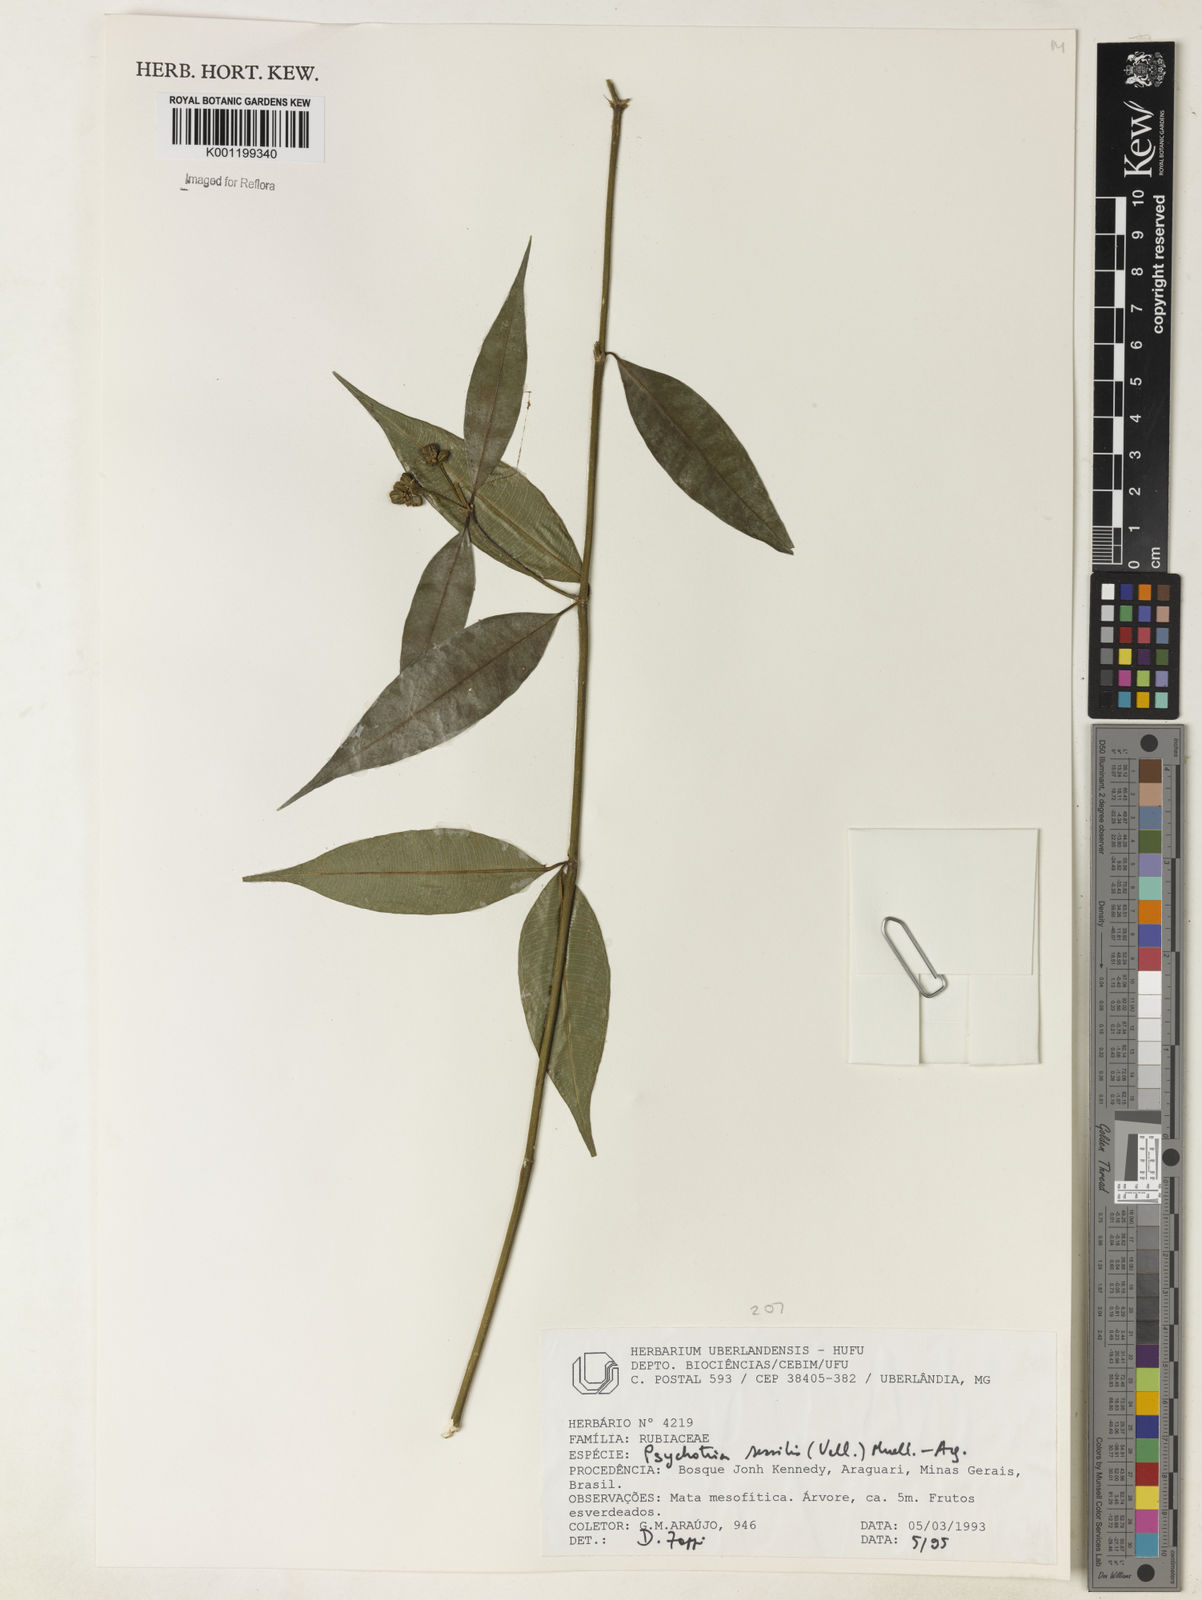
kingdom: Plantae
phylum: Tracheophyta
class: Magnoliopsida
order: Gentianales
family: Rubiaceae
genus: Rudgea
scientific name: Rudgea sessilis
